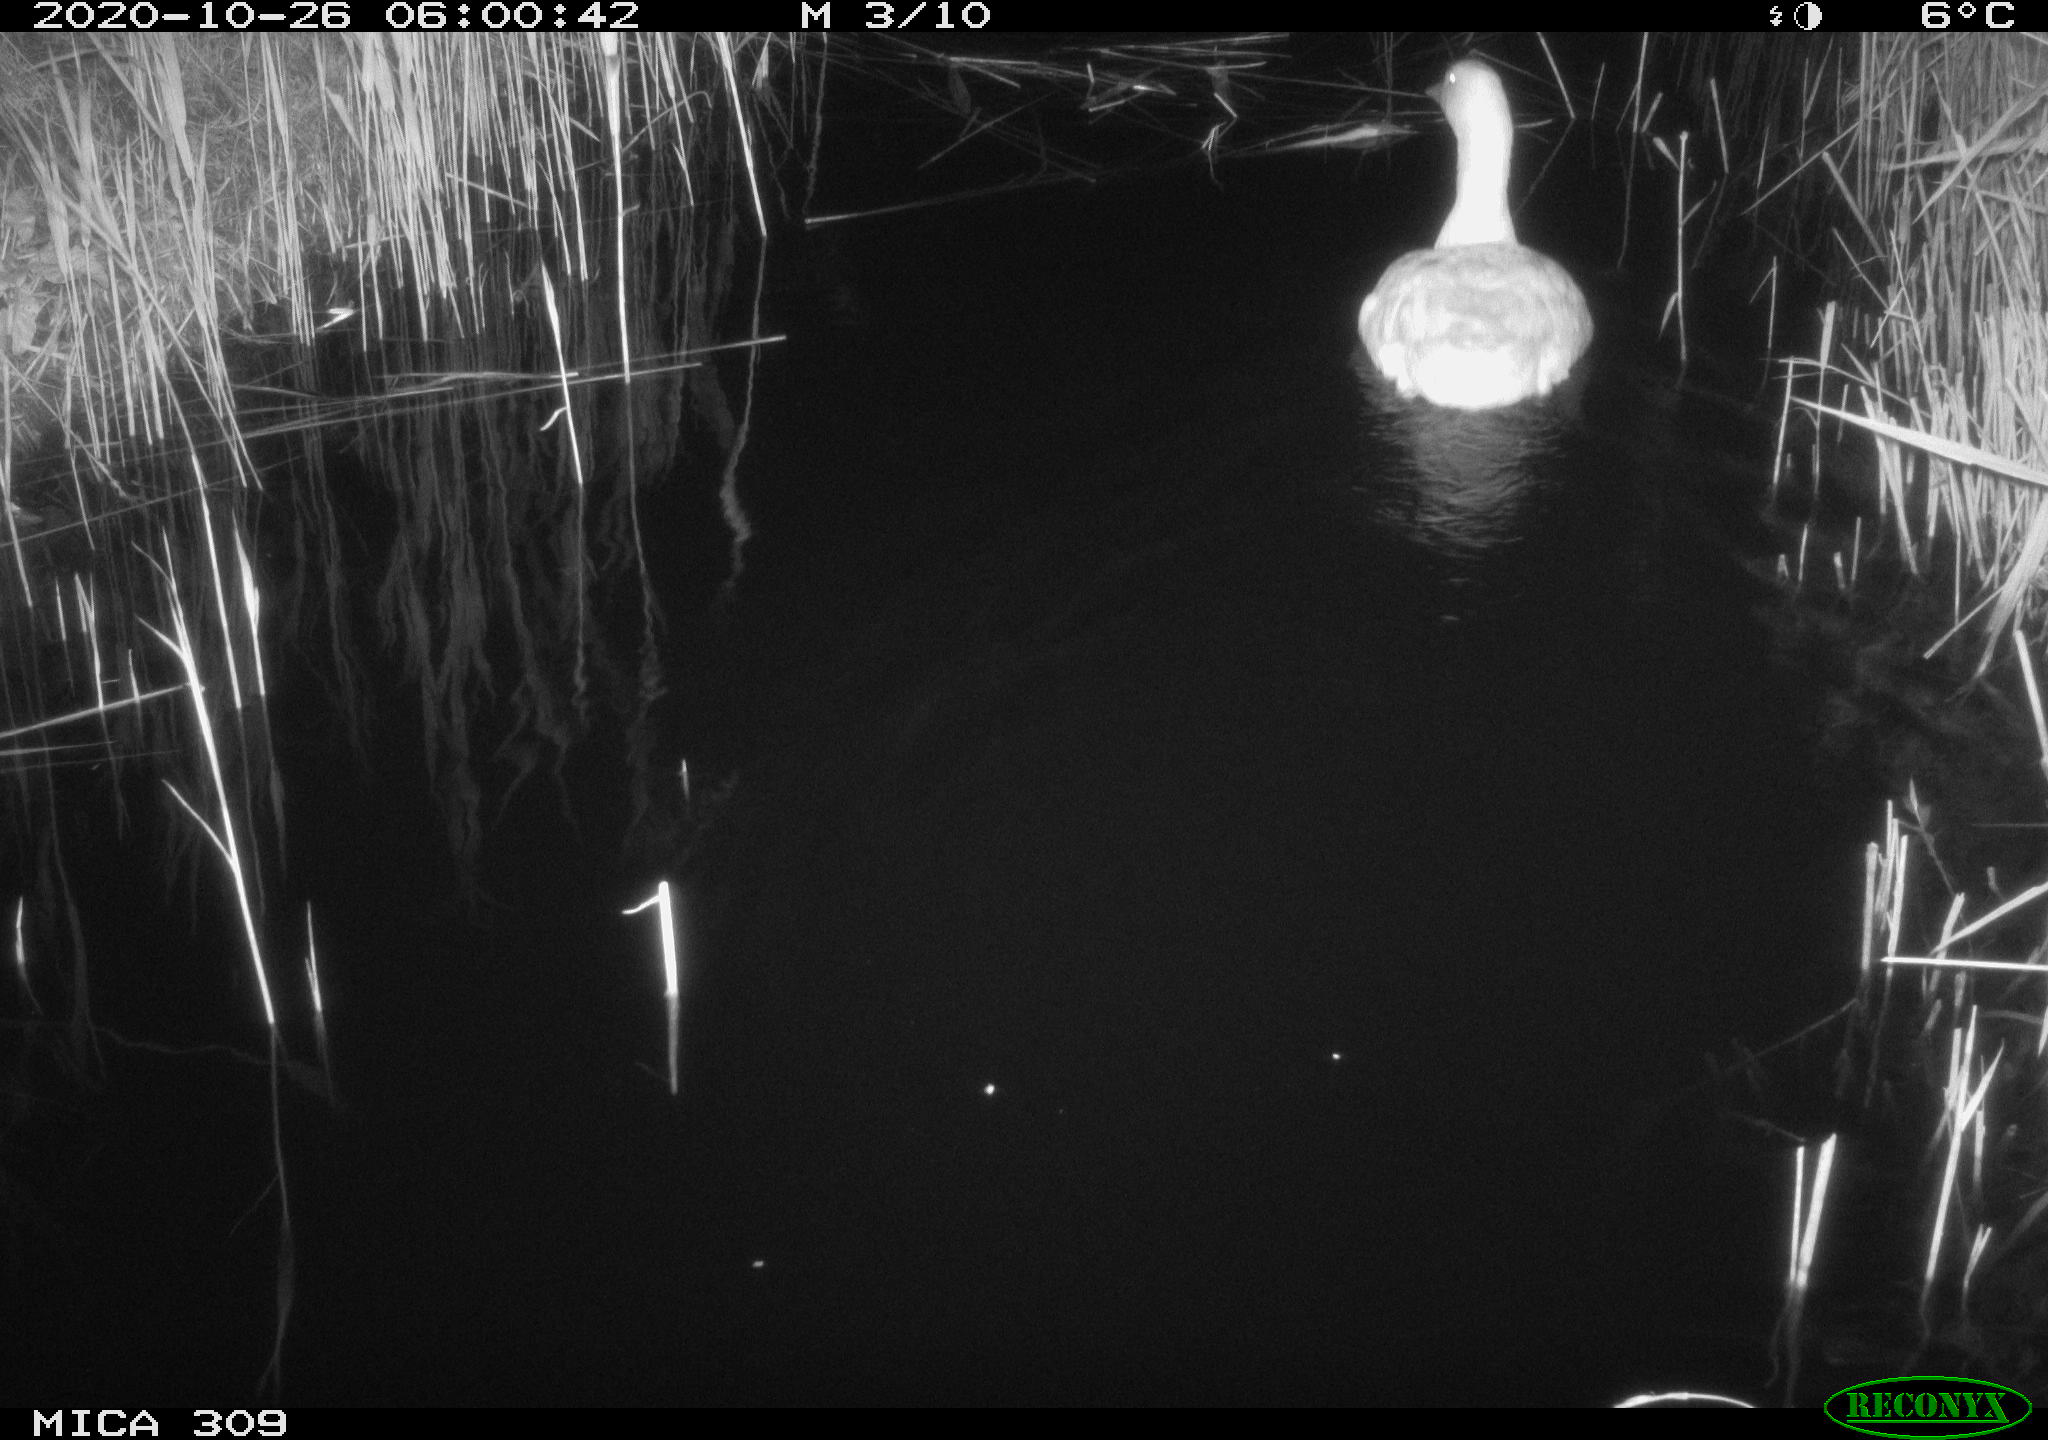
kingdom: Animalia
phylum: Chordata
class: Aves
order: Anseriformes
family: Anatidae
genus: Anser
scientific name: Anser anser
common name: Greylag goose
